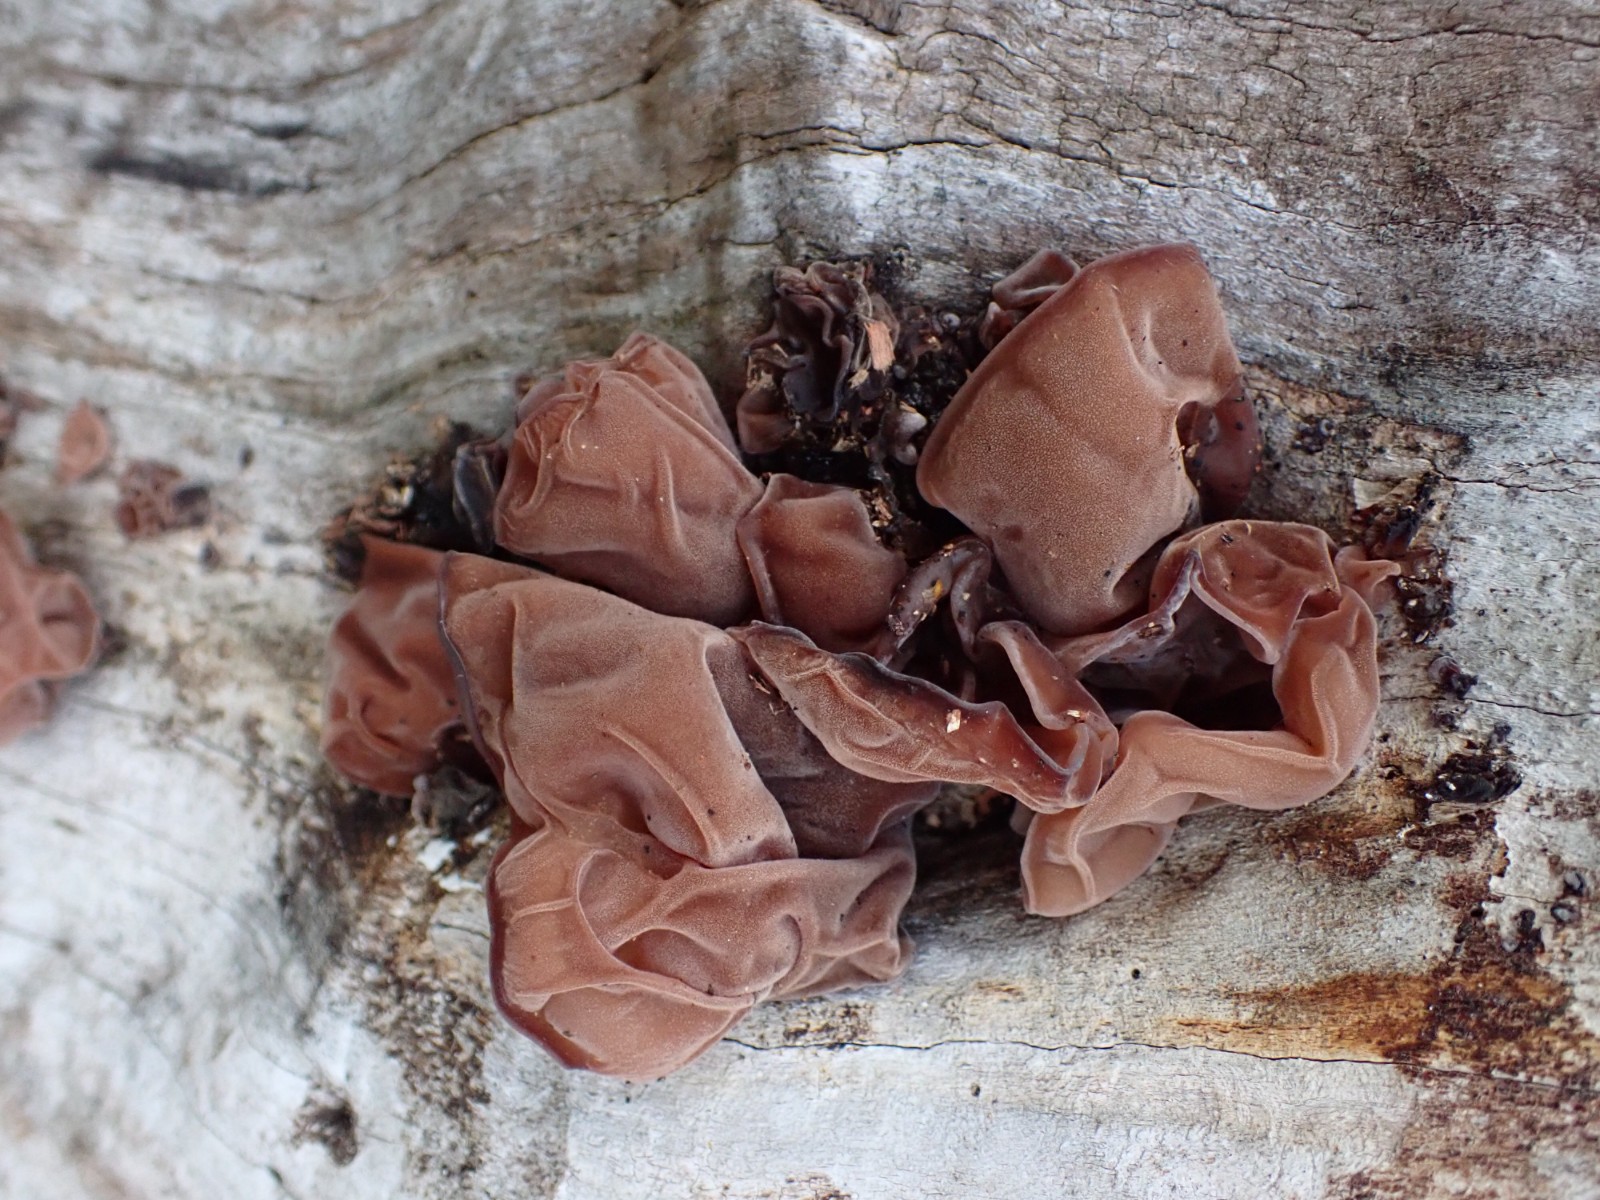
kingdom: Fungi
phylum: Basidiomycota
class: Agaricomycetes
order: Auriculariales
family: Auriculariaceae
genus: Auricularia
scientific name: Auricularia auricula-judae
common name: almindelig judasøre
